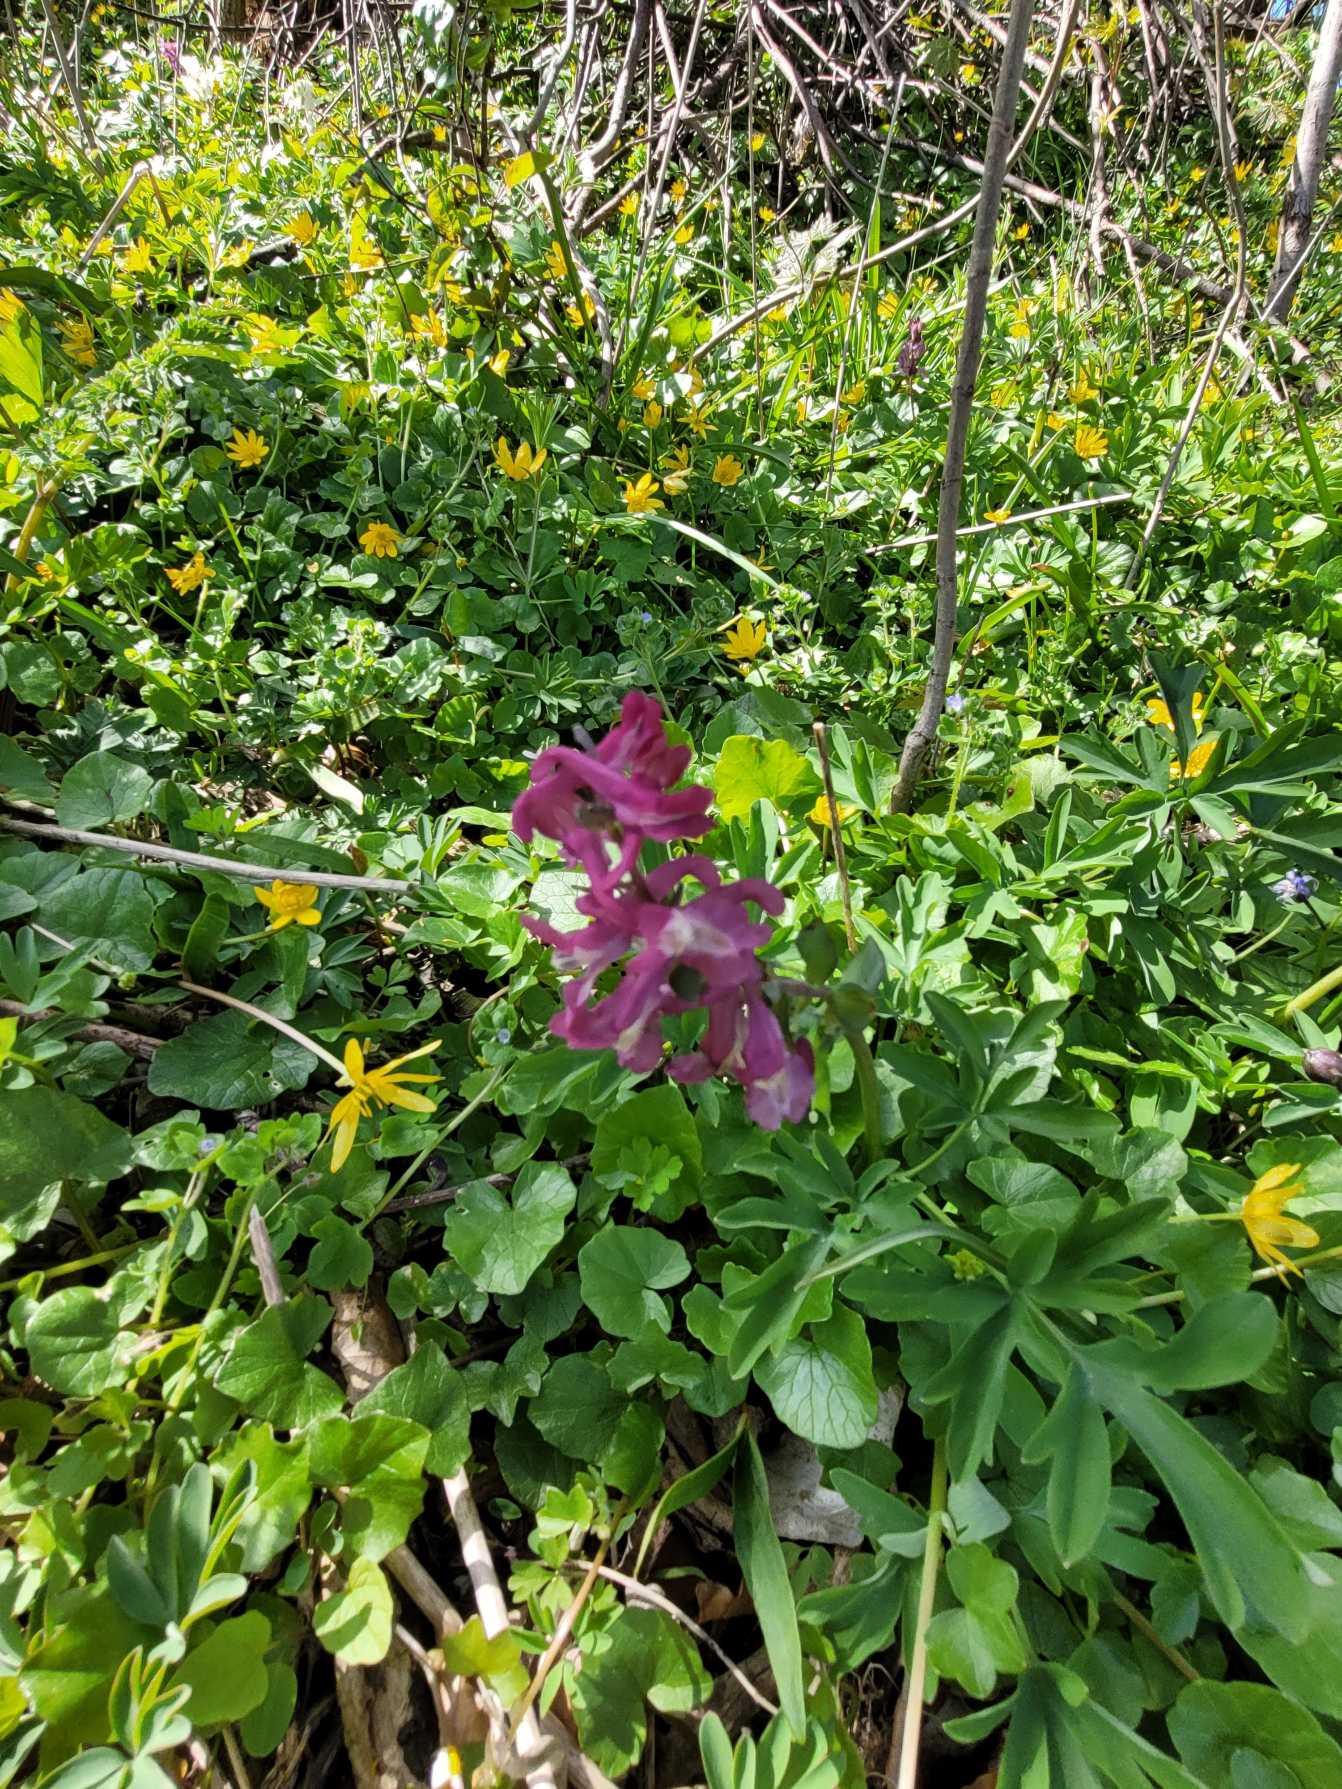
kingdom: Plantae
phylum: Tracheophyta
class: Magnoliopsida
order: Ranunculales
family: Papaveraceae
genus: Corydalis
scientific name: Corydalis cava
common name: Hulrodet lærkespore
